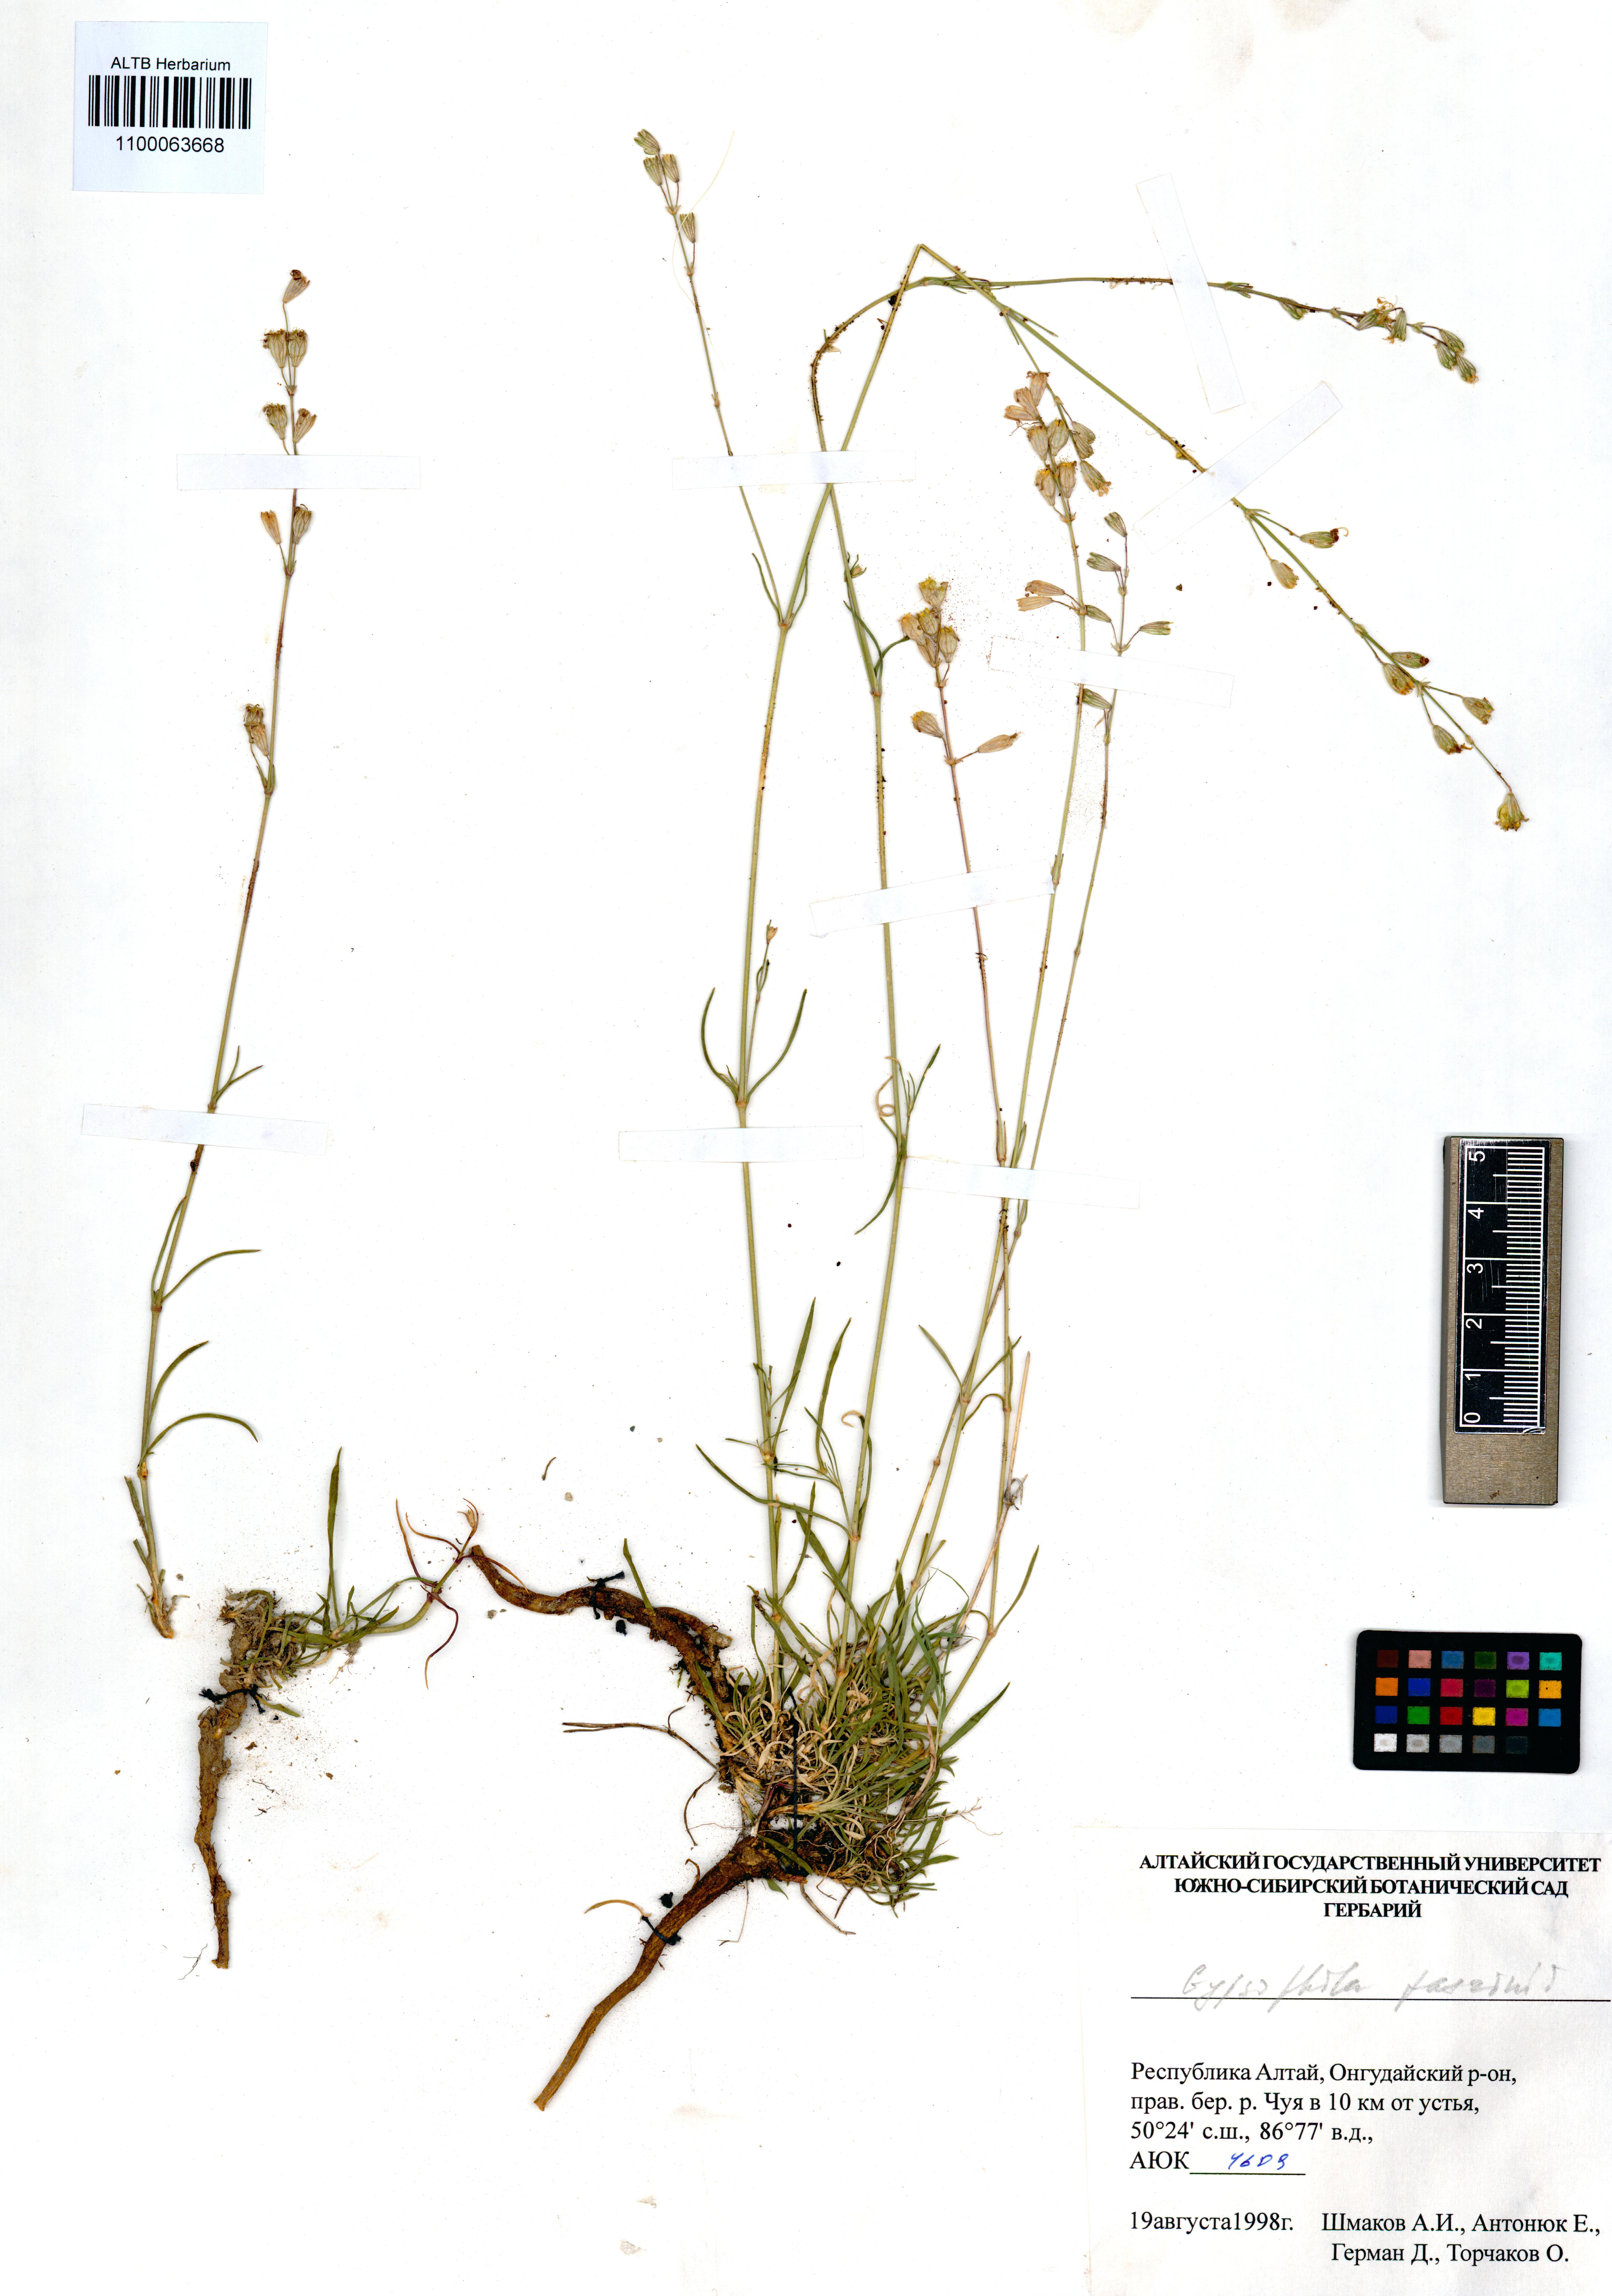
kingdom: Plantae
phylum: Tracheophyta
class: Magnoliopsida
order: Caryophyllales
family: Caryophyllaceae
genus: Gypsophila
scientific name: Gypsophila patrinii
